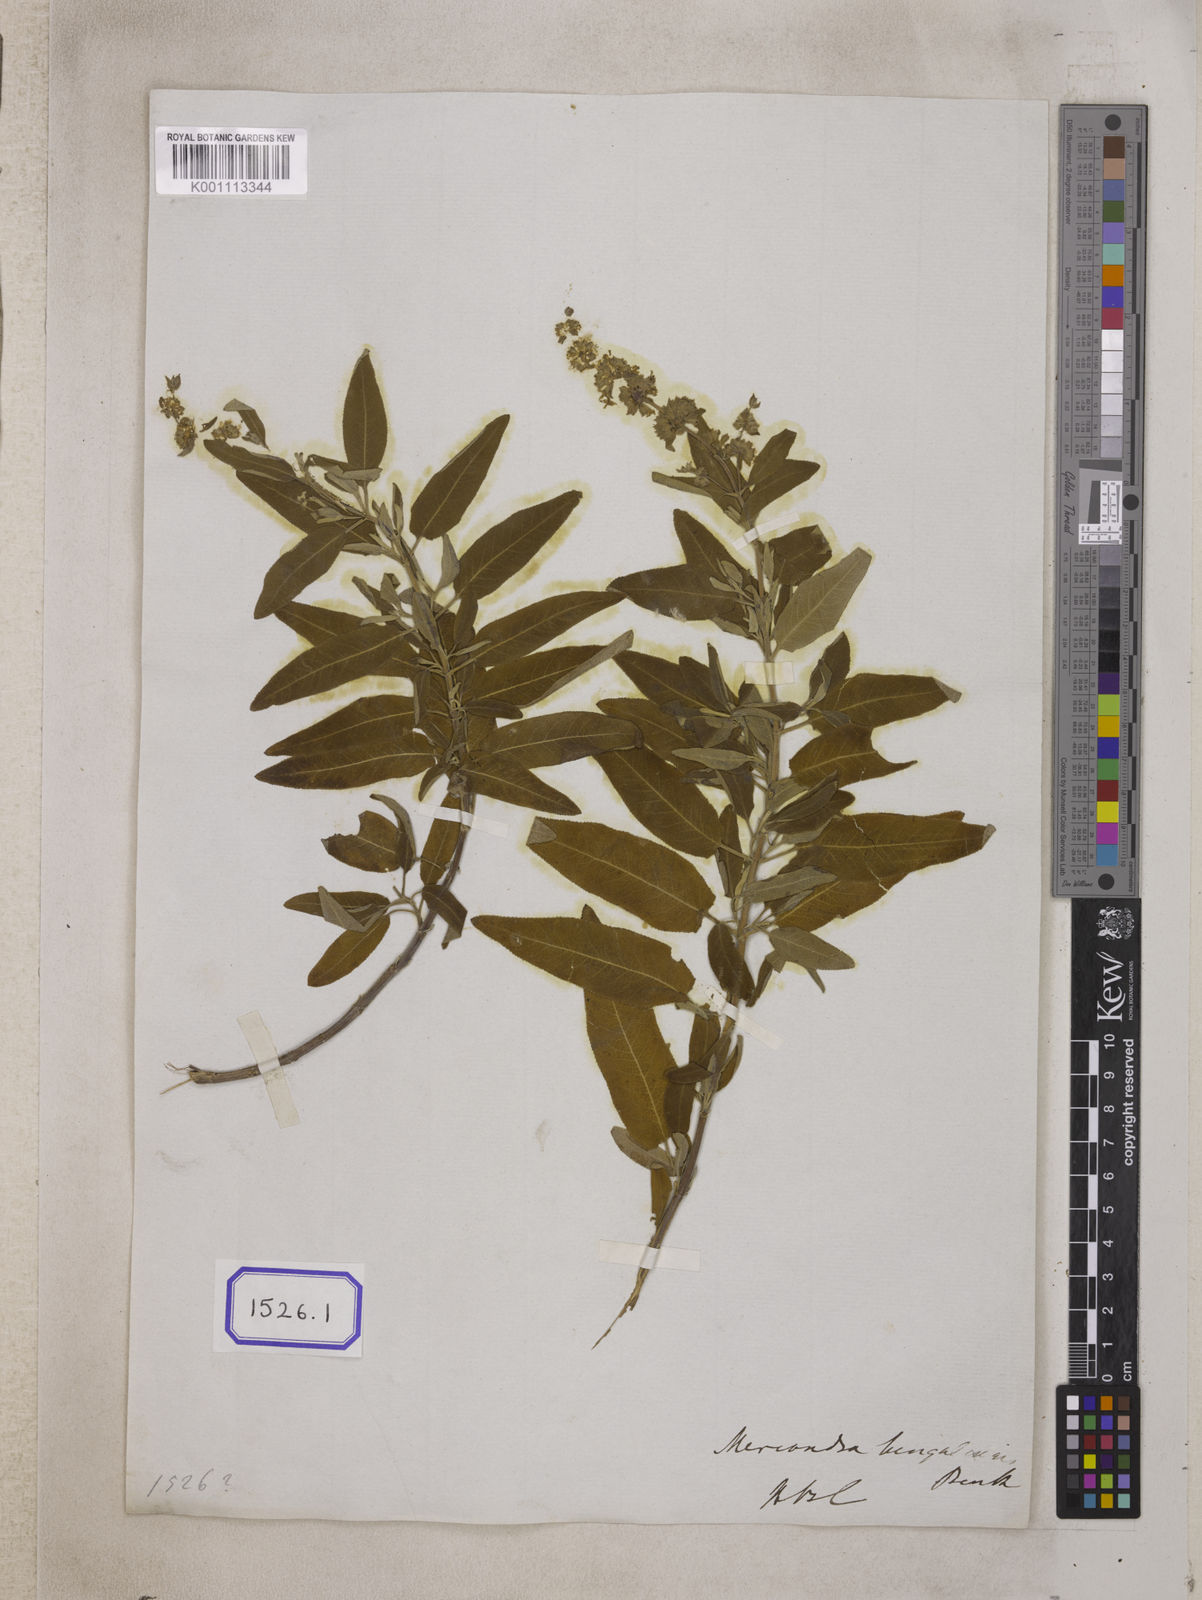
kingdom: Plantae
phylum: Tracheophyta
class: Magnoliopsida
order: Lamiales
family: Lamiaceae
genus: Salvia
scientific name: Salvia dianthera
